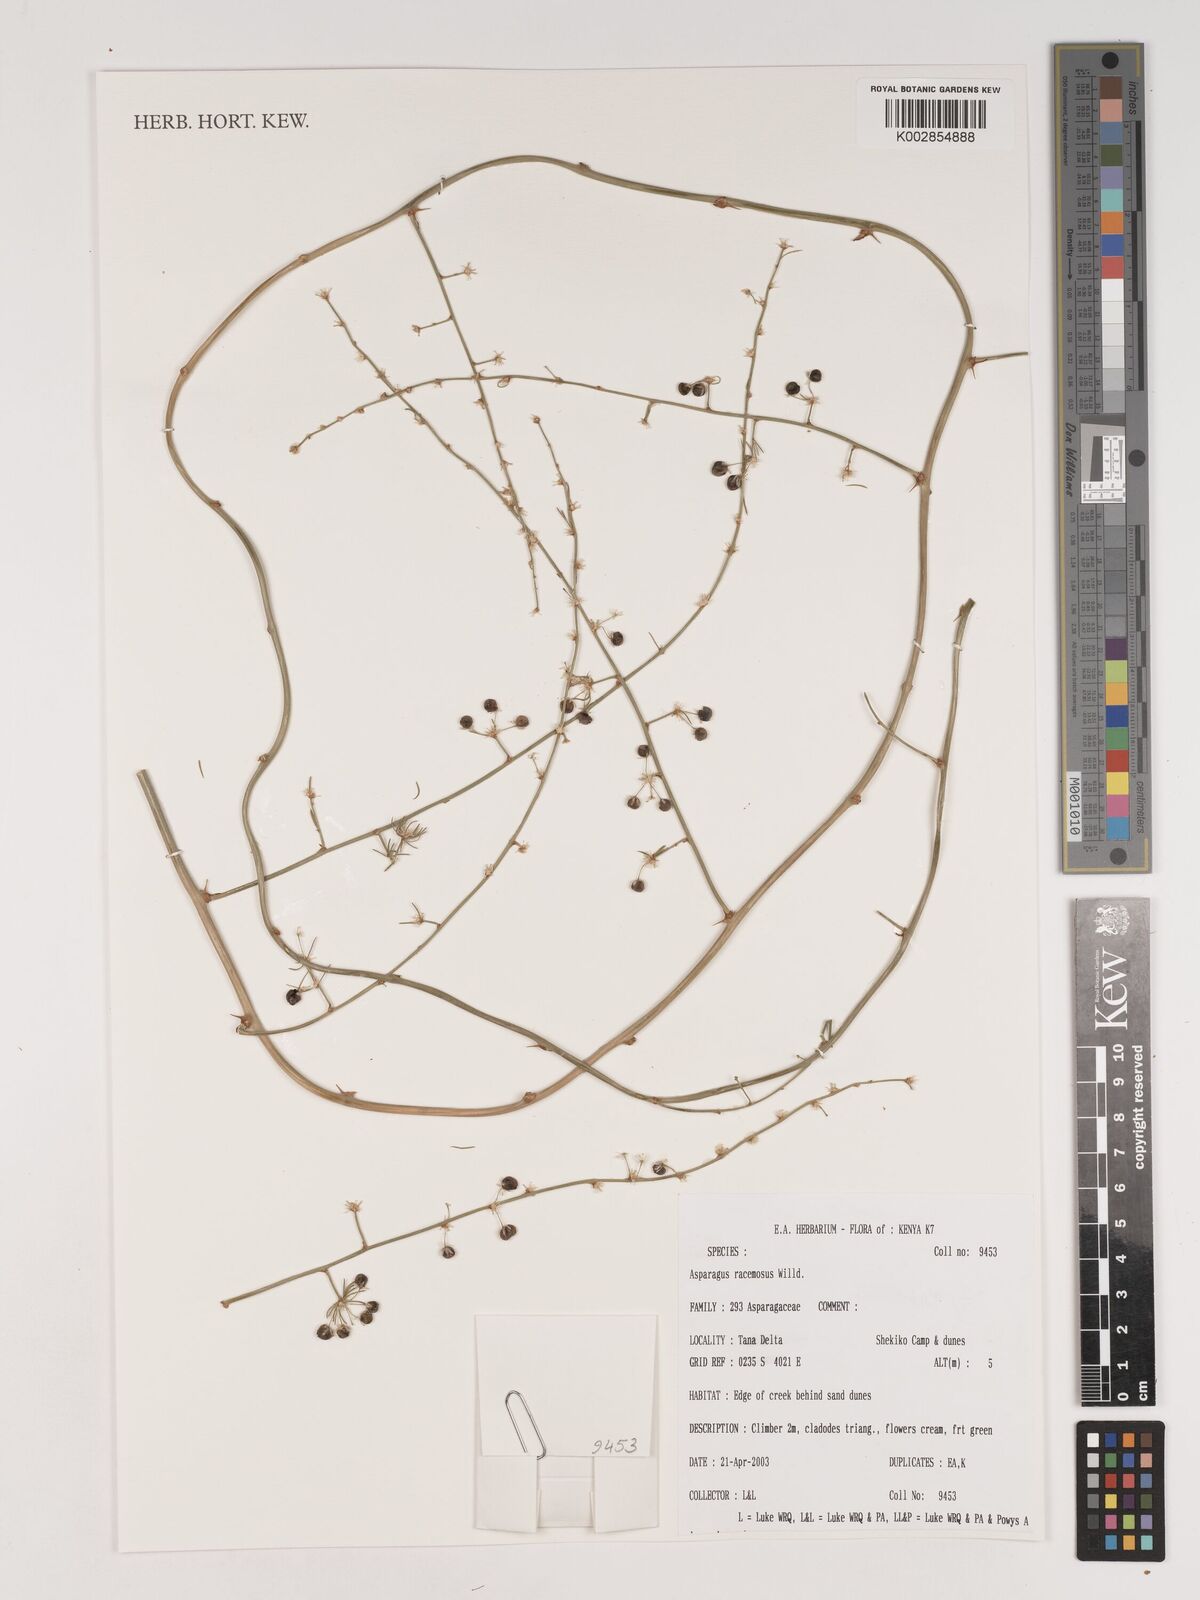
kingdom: Plantae
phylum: Tracheophyta
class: Liliopsida
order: Asparagales
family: Asparagaceae
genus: Asparagus
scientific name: Asparagus racemosus
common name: Asparagus-fern
